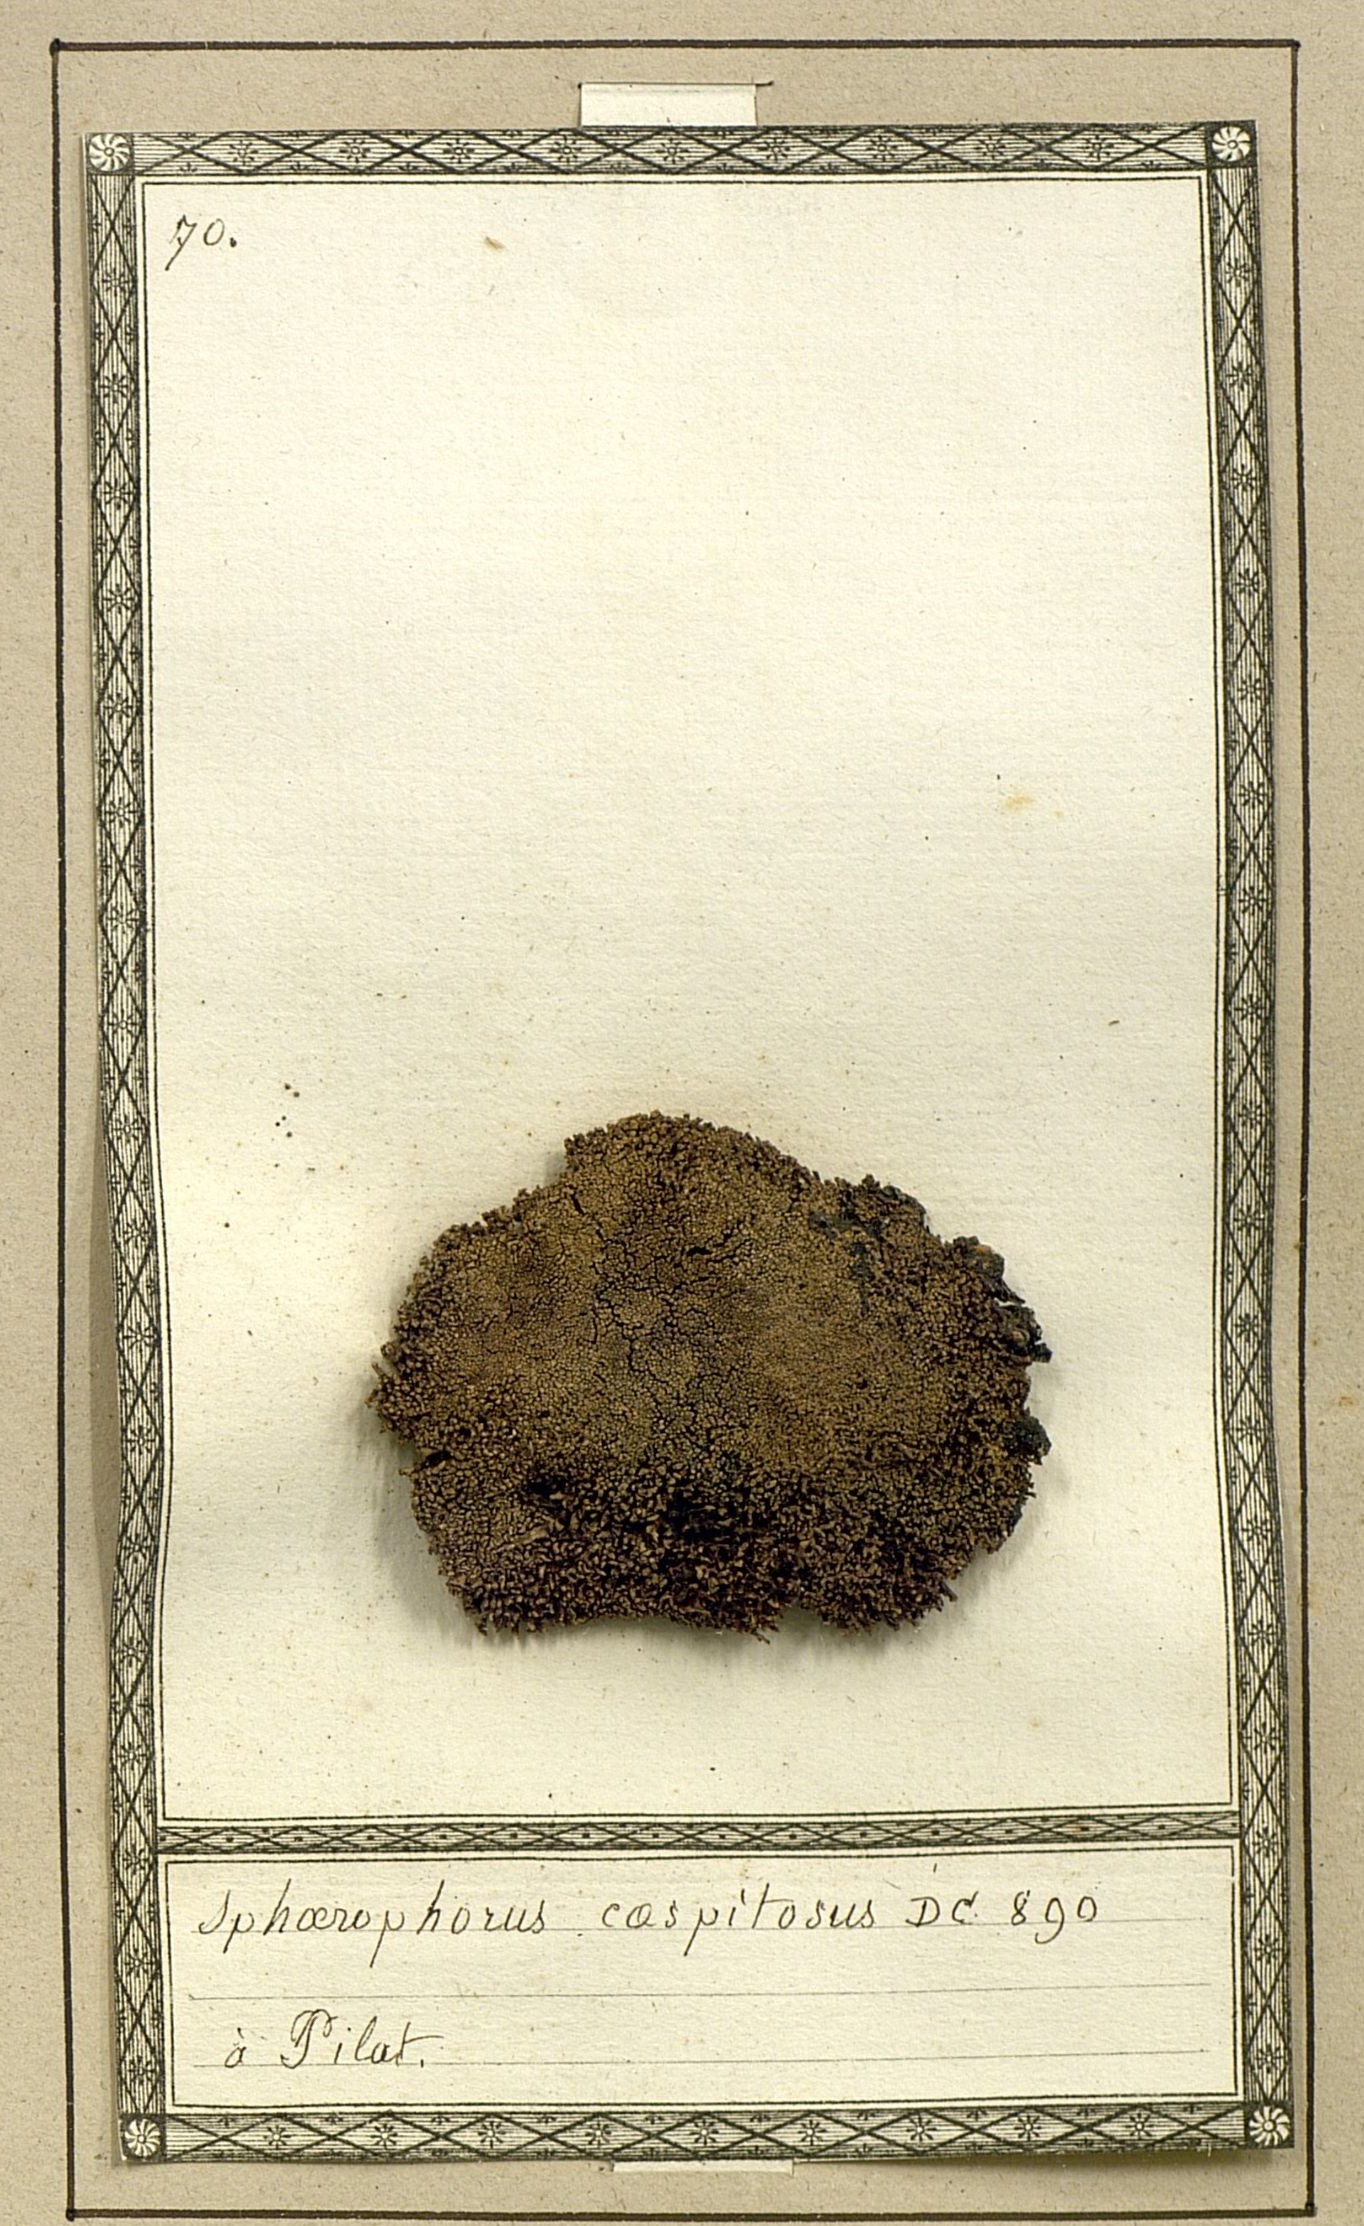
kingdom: Fungi
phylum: Ascomycota
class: Lecanoromycetes
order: Lecanorales
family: Sphaerophoraceae
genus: Sphaerophorus
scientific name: Sphaerophorus fragilis
